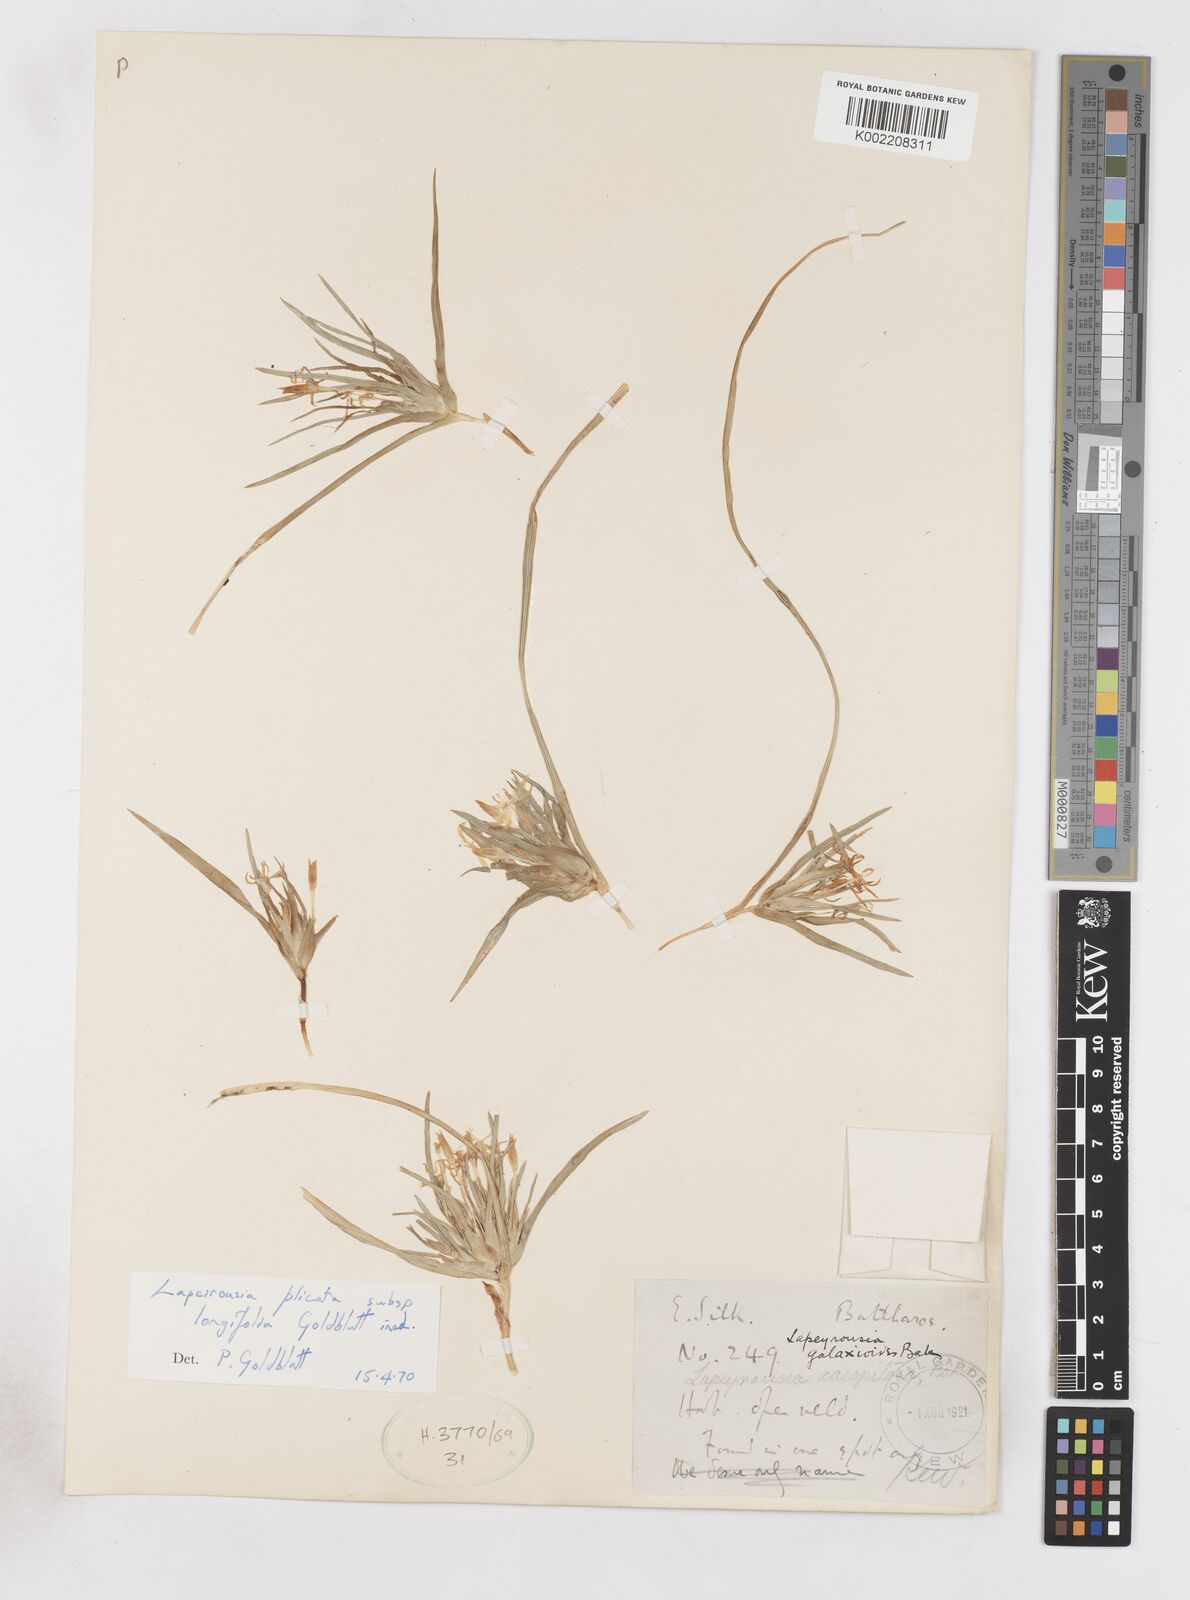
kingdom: Plantae
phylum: Tracheophyta
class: Liliopsida
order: Asparagales
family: Iridaceae
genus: Lapeirousia
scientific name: Lapeirousia kalahariensis
